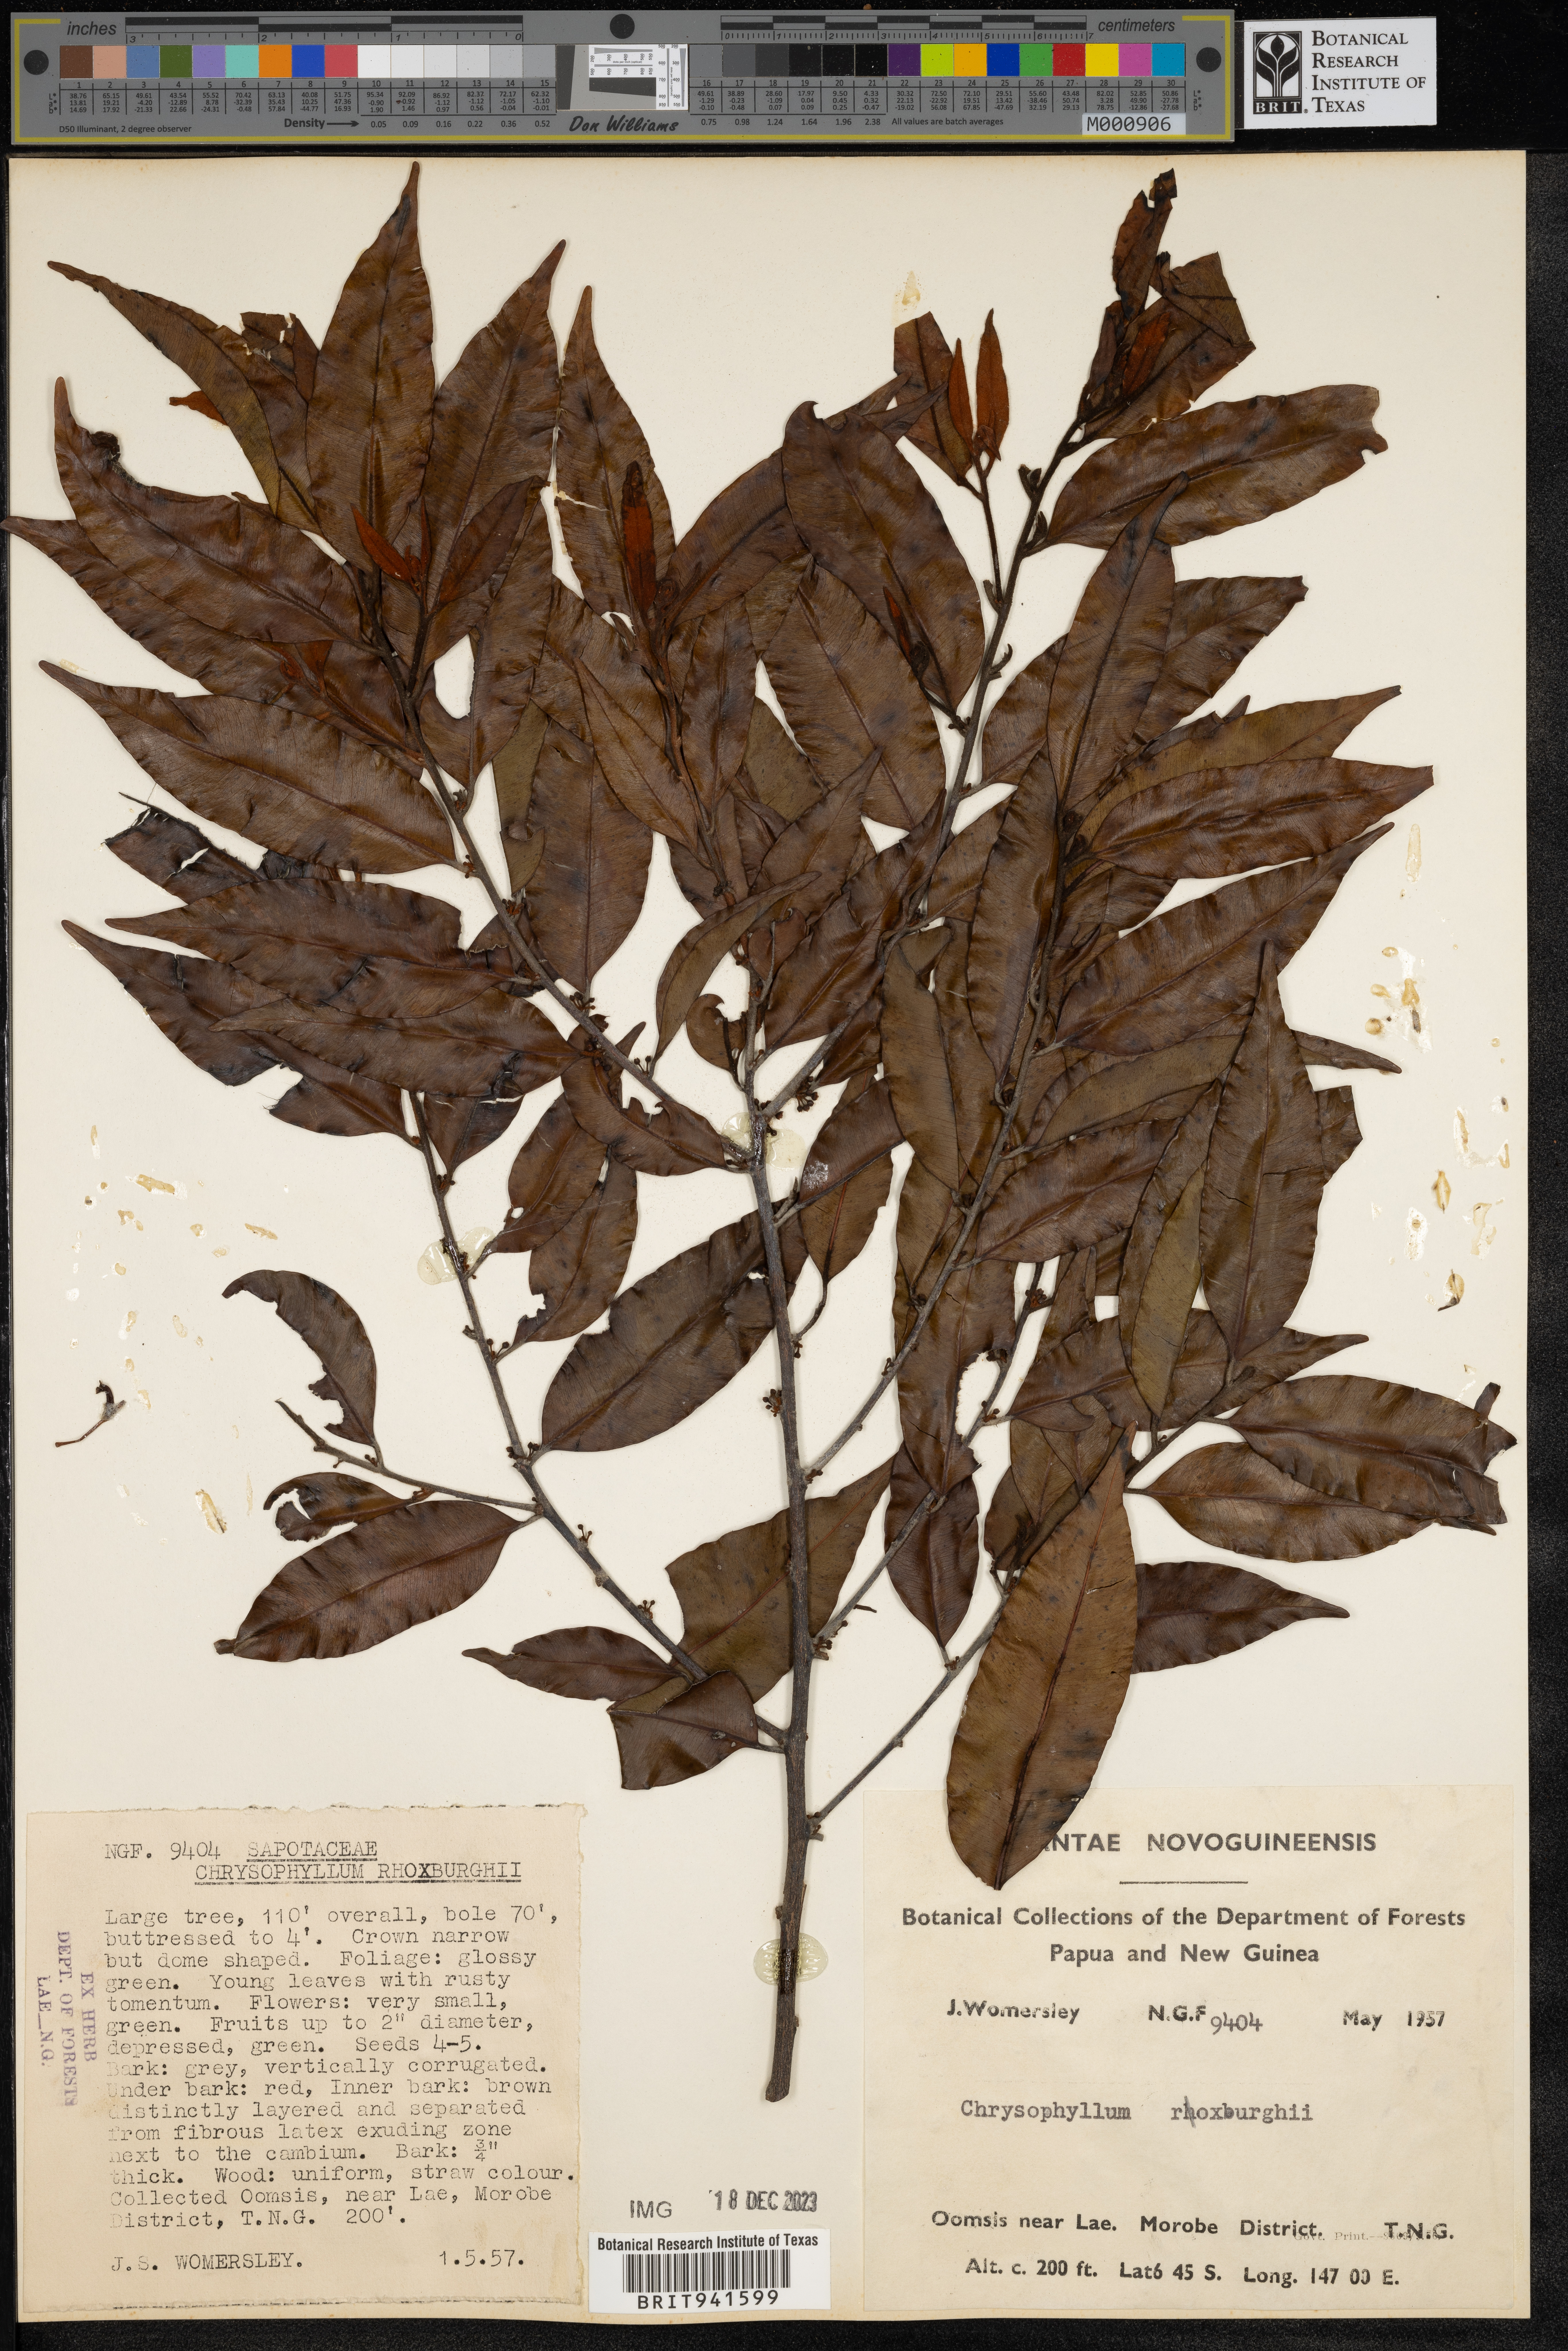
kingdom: Plantae
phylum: Tracheophyta
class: Magnoliopsida
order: Ericales
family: Sapotaceae
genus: Chrysophyllum
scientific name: Chrysophyllum
